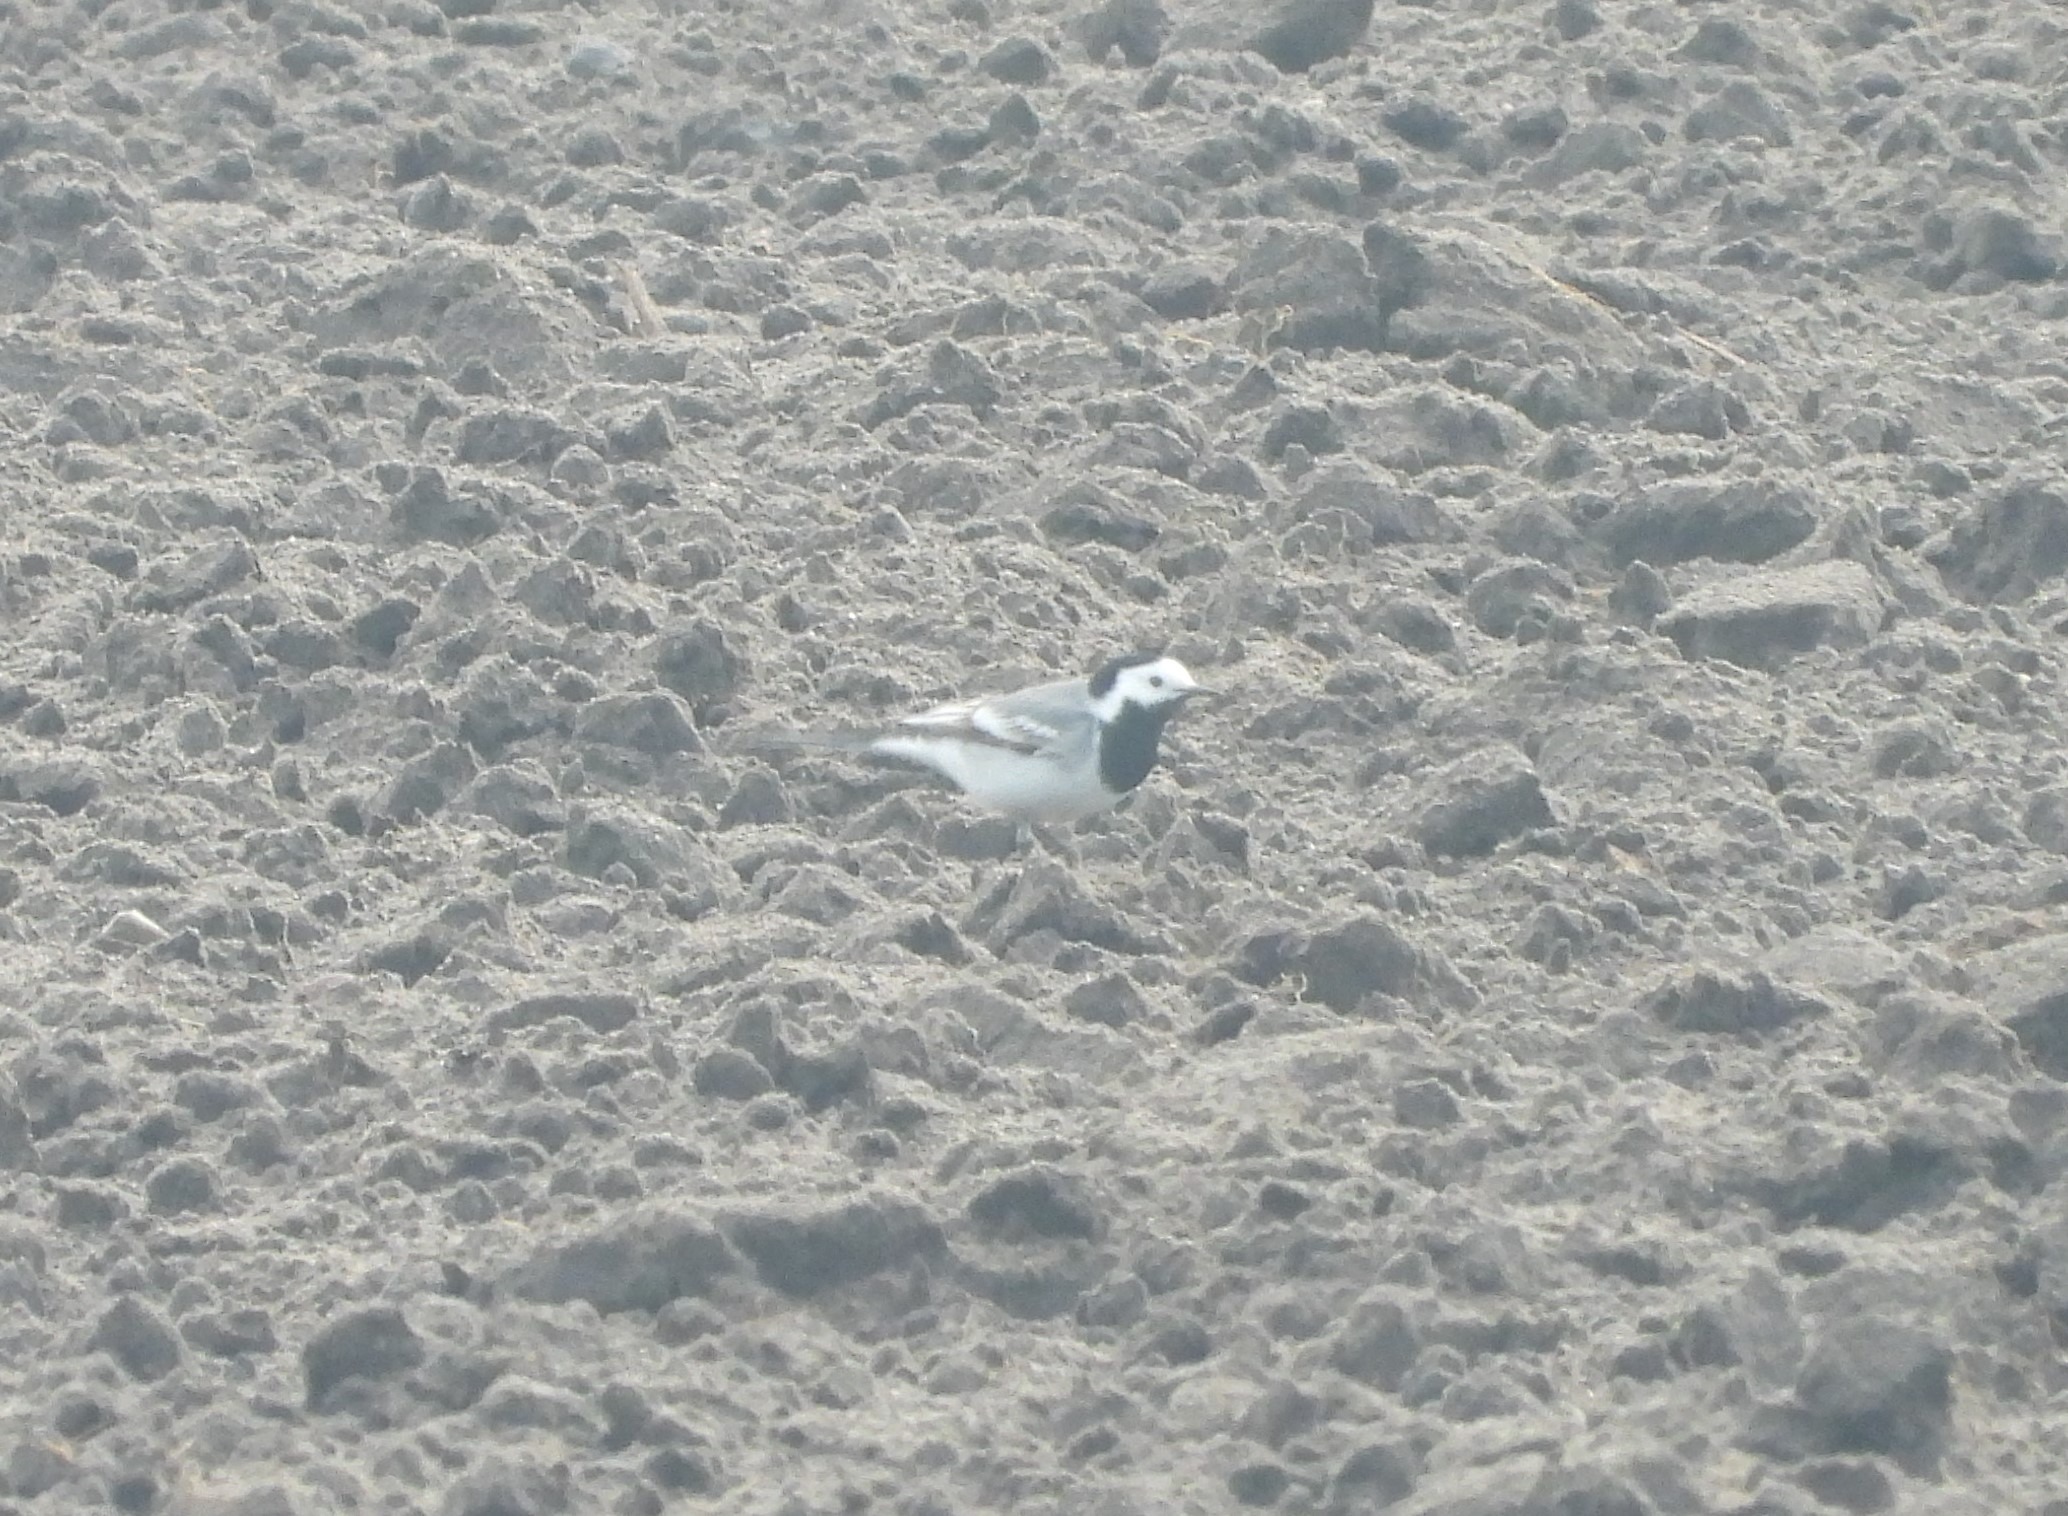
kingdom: Animalia
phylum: Chordata
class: Aves
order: Passeriformes
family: Motacillidae
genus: Motacilla
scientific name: Motacilla alba
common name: Hvid vipstjert
